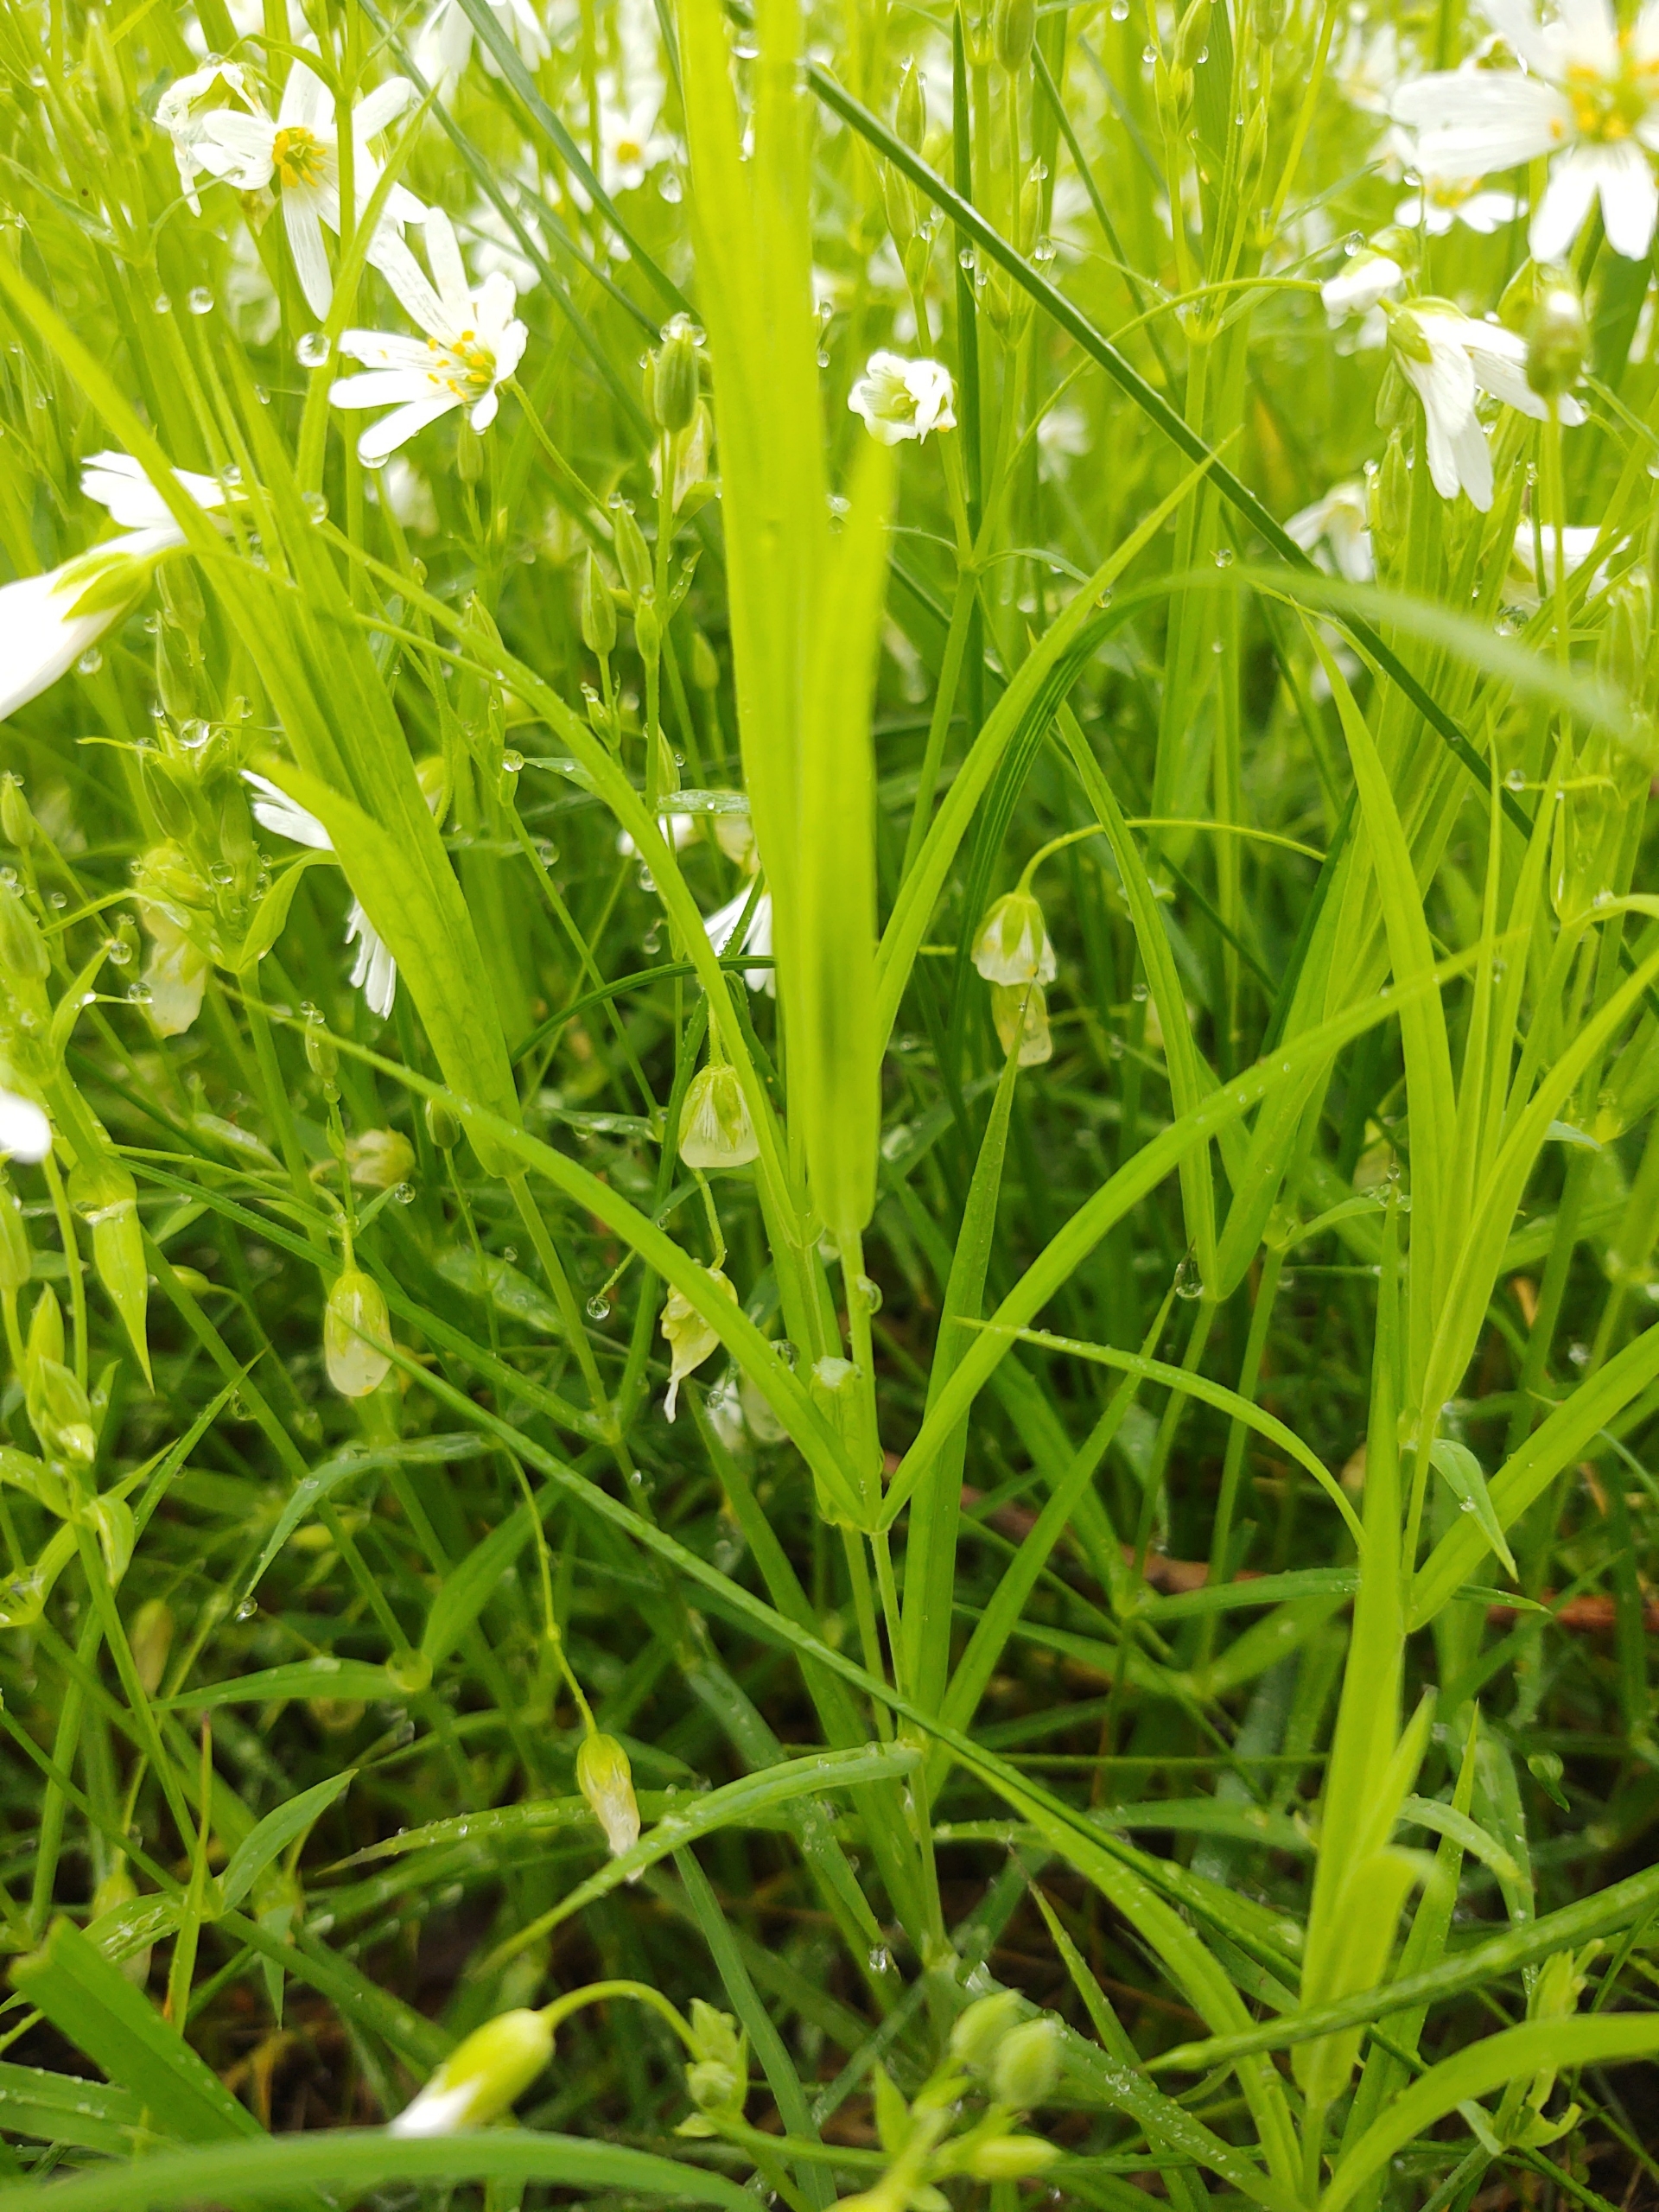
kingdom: Plantae
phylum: Tracheophyta
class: Magnoliopsida
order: Caryophyllales
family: Caryophyllaceae
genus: Rabelera
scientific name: Rabelera holostea
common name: Stor fladstjerne
